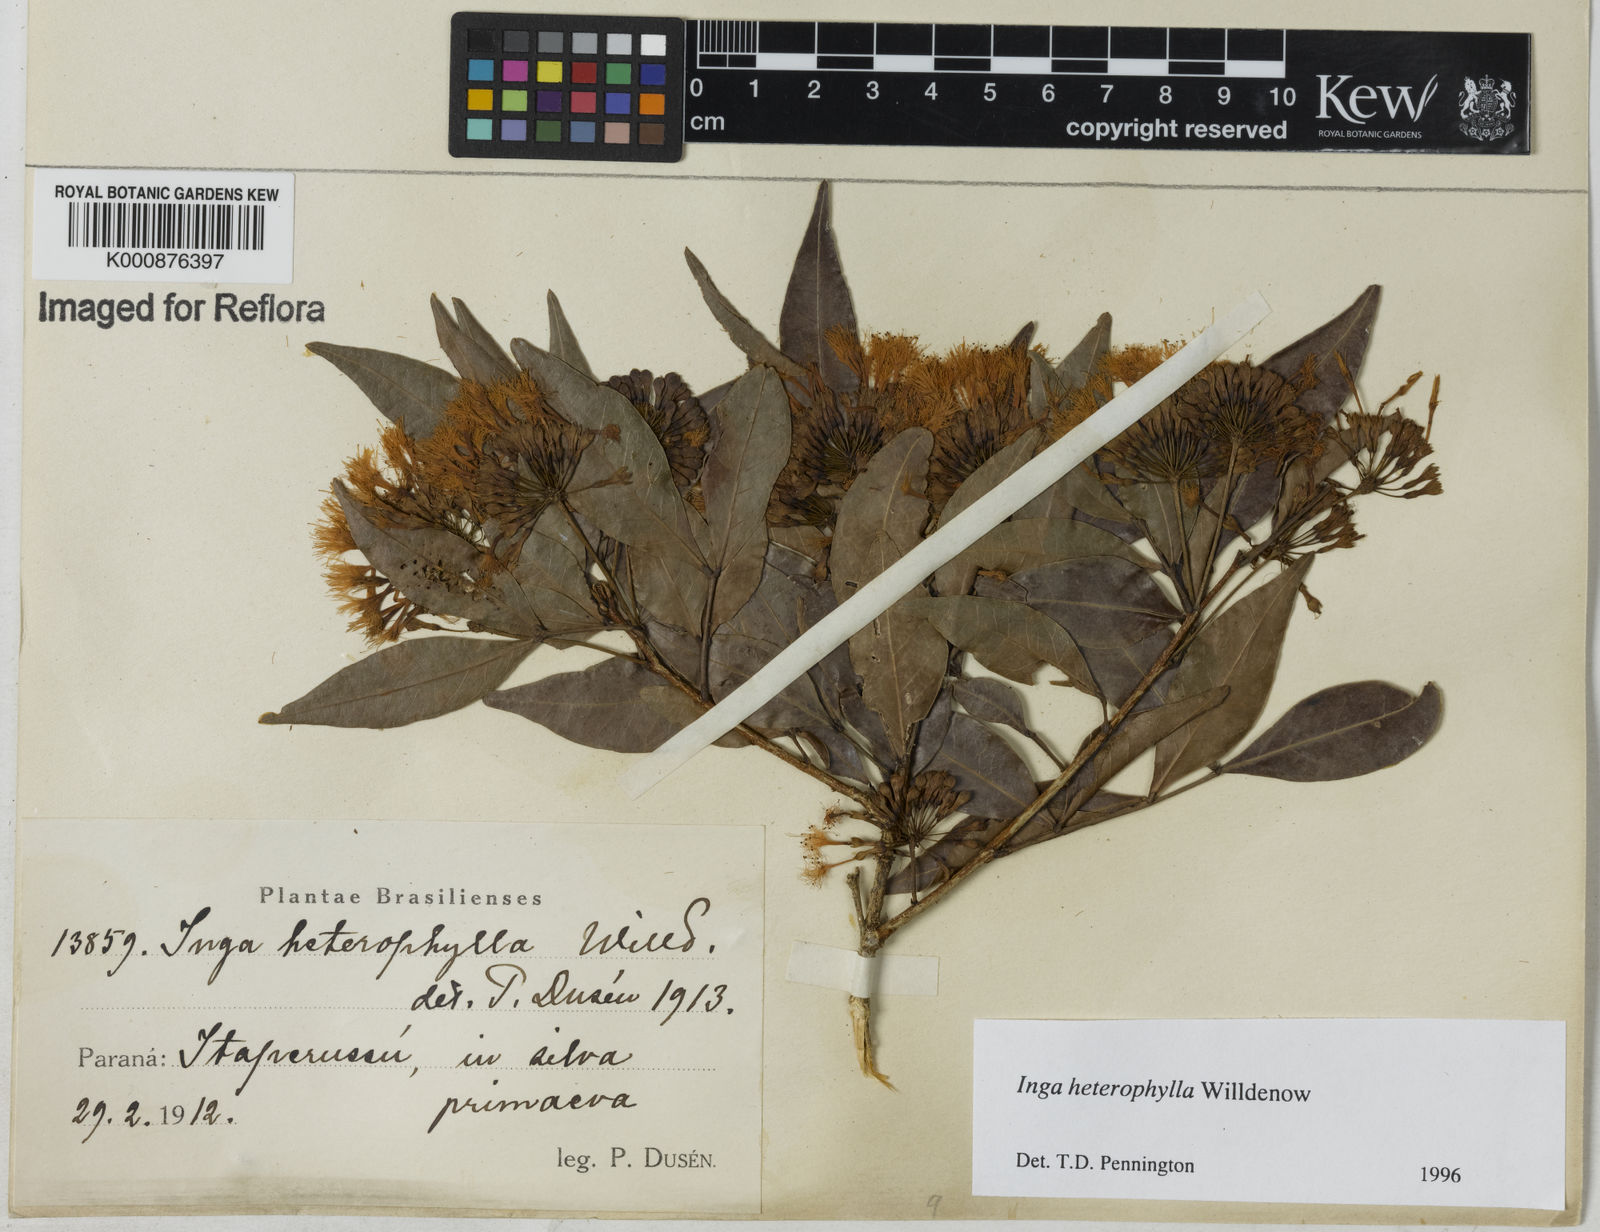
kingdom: Plantae
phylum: Tracheophyta
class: Magnoliopsida
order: Fabales
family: Fabaceae
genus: Inga
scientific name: Inga heterophylla
